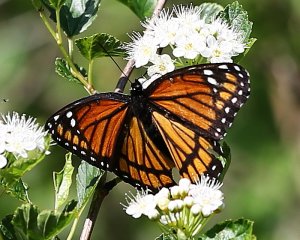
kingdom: Animalia
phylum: Arthropoda
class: Insecta
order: Lepidoptera
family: Nymphalidae
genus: Limenitis
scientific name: Limenitis archippus
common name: Viceroy
